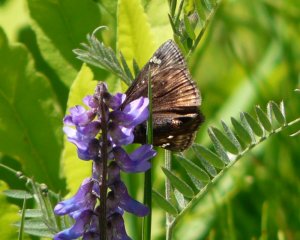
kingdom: Animalia
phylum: Arthropoda
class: Insecta
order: Lepidoptera
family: Hesperiidae
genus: Gesta
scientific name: Gesta
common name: Juvenal's Duskywing
